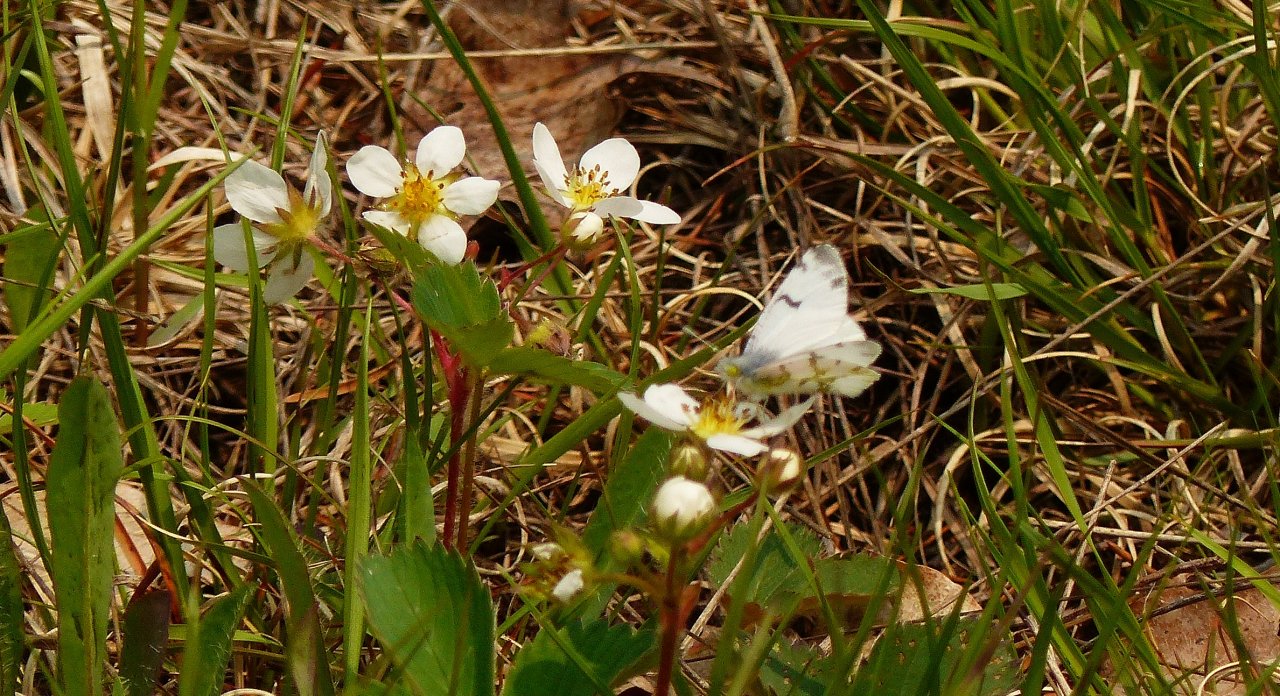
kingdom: Animalia
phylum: Arthropoda
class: Insecta
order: Lepidoptera
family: Pieridae
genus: Euchloe
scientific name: Euchloe olympia
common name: Olympia Marble
